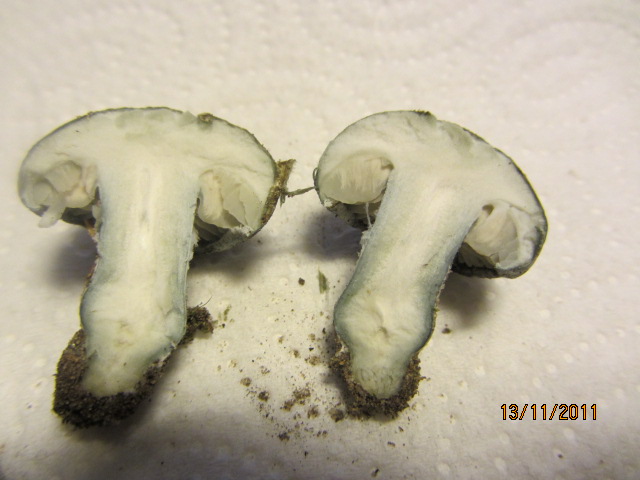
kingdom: Fungi
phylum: Basidiomycota
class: Agaricomycetes
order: Agaricales
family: Strophariaceae
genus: Stropharia
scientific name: Stropharia cyanea
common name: blågrøn bredblad
